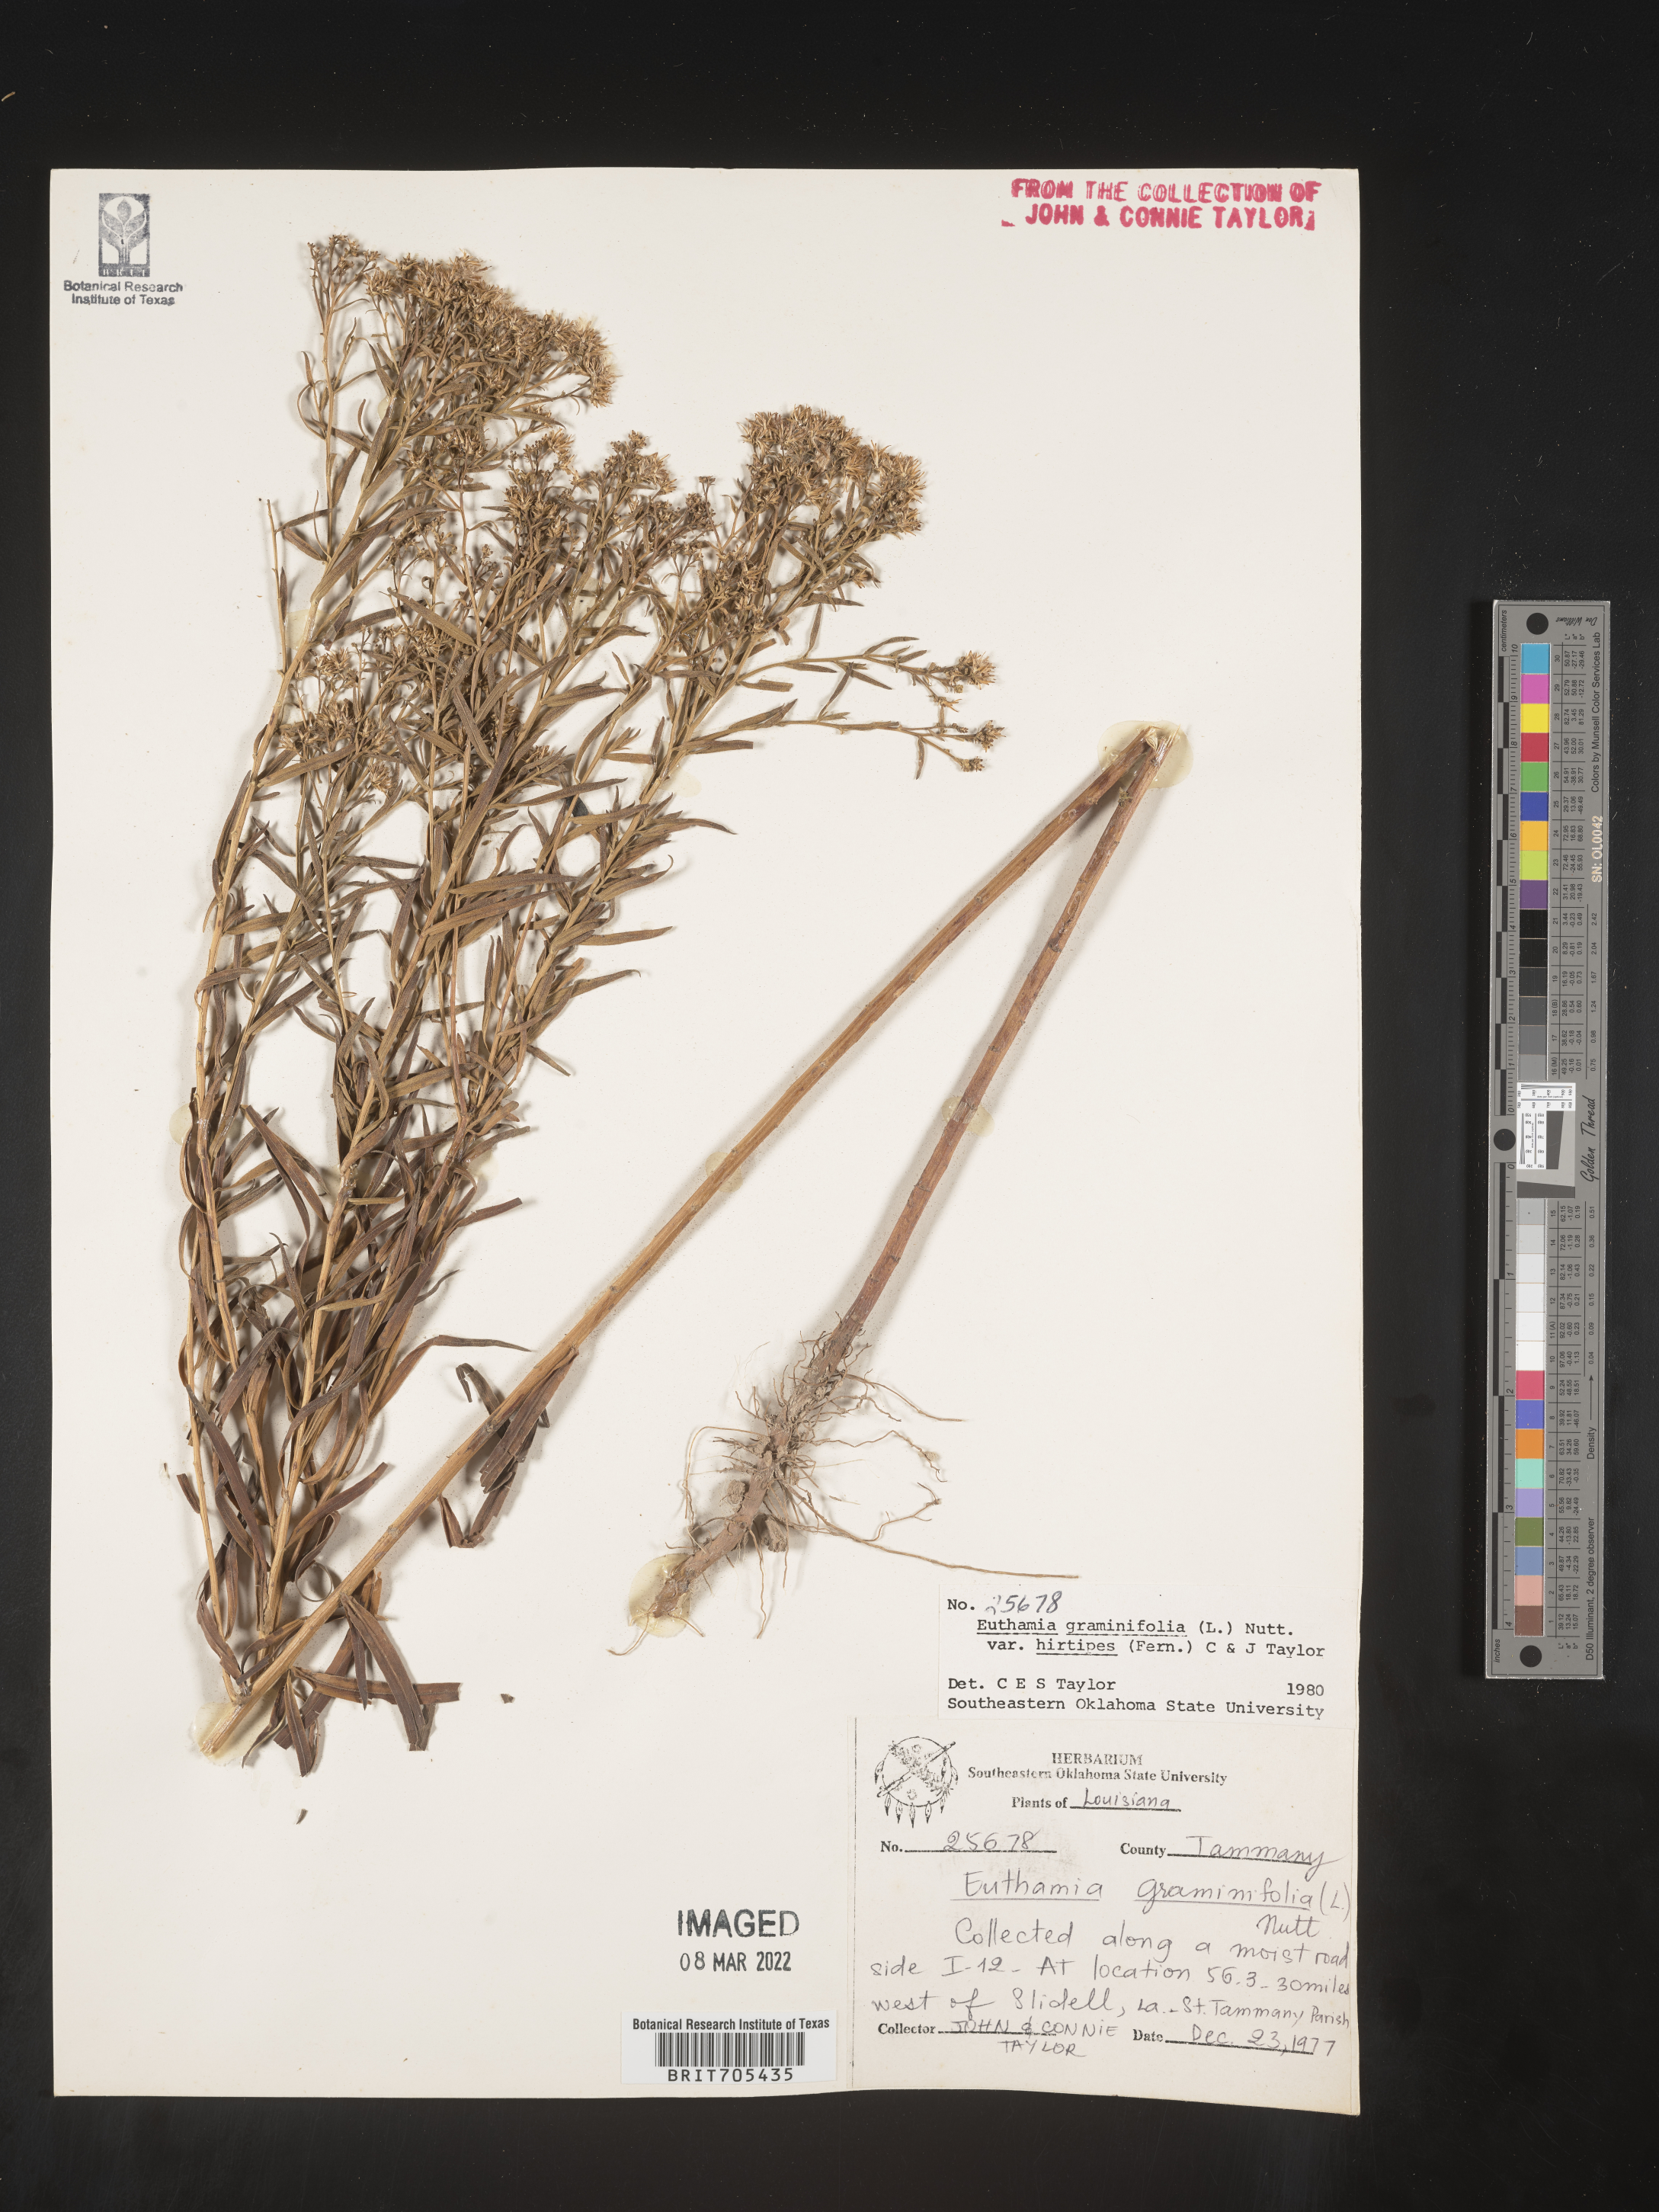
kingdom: Plantae
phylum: Tracheophyta
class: Magnoliopsida
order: Asterales
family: Asteraceae
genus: Euthamia
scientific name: Euthamia
